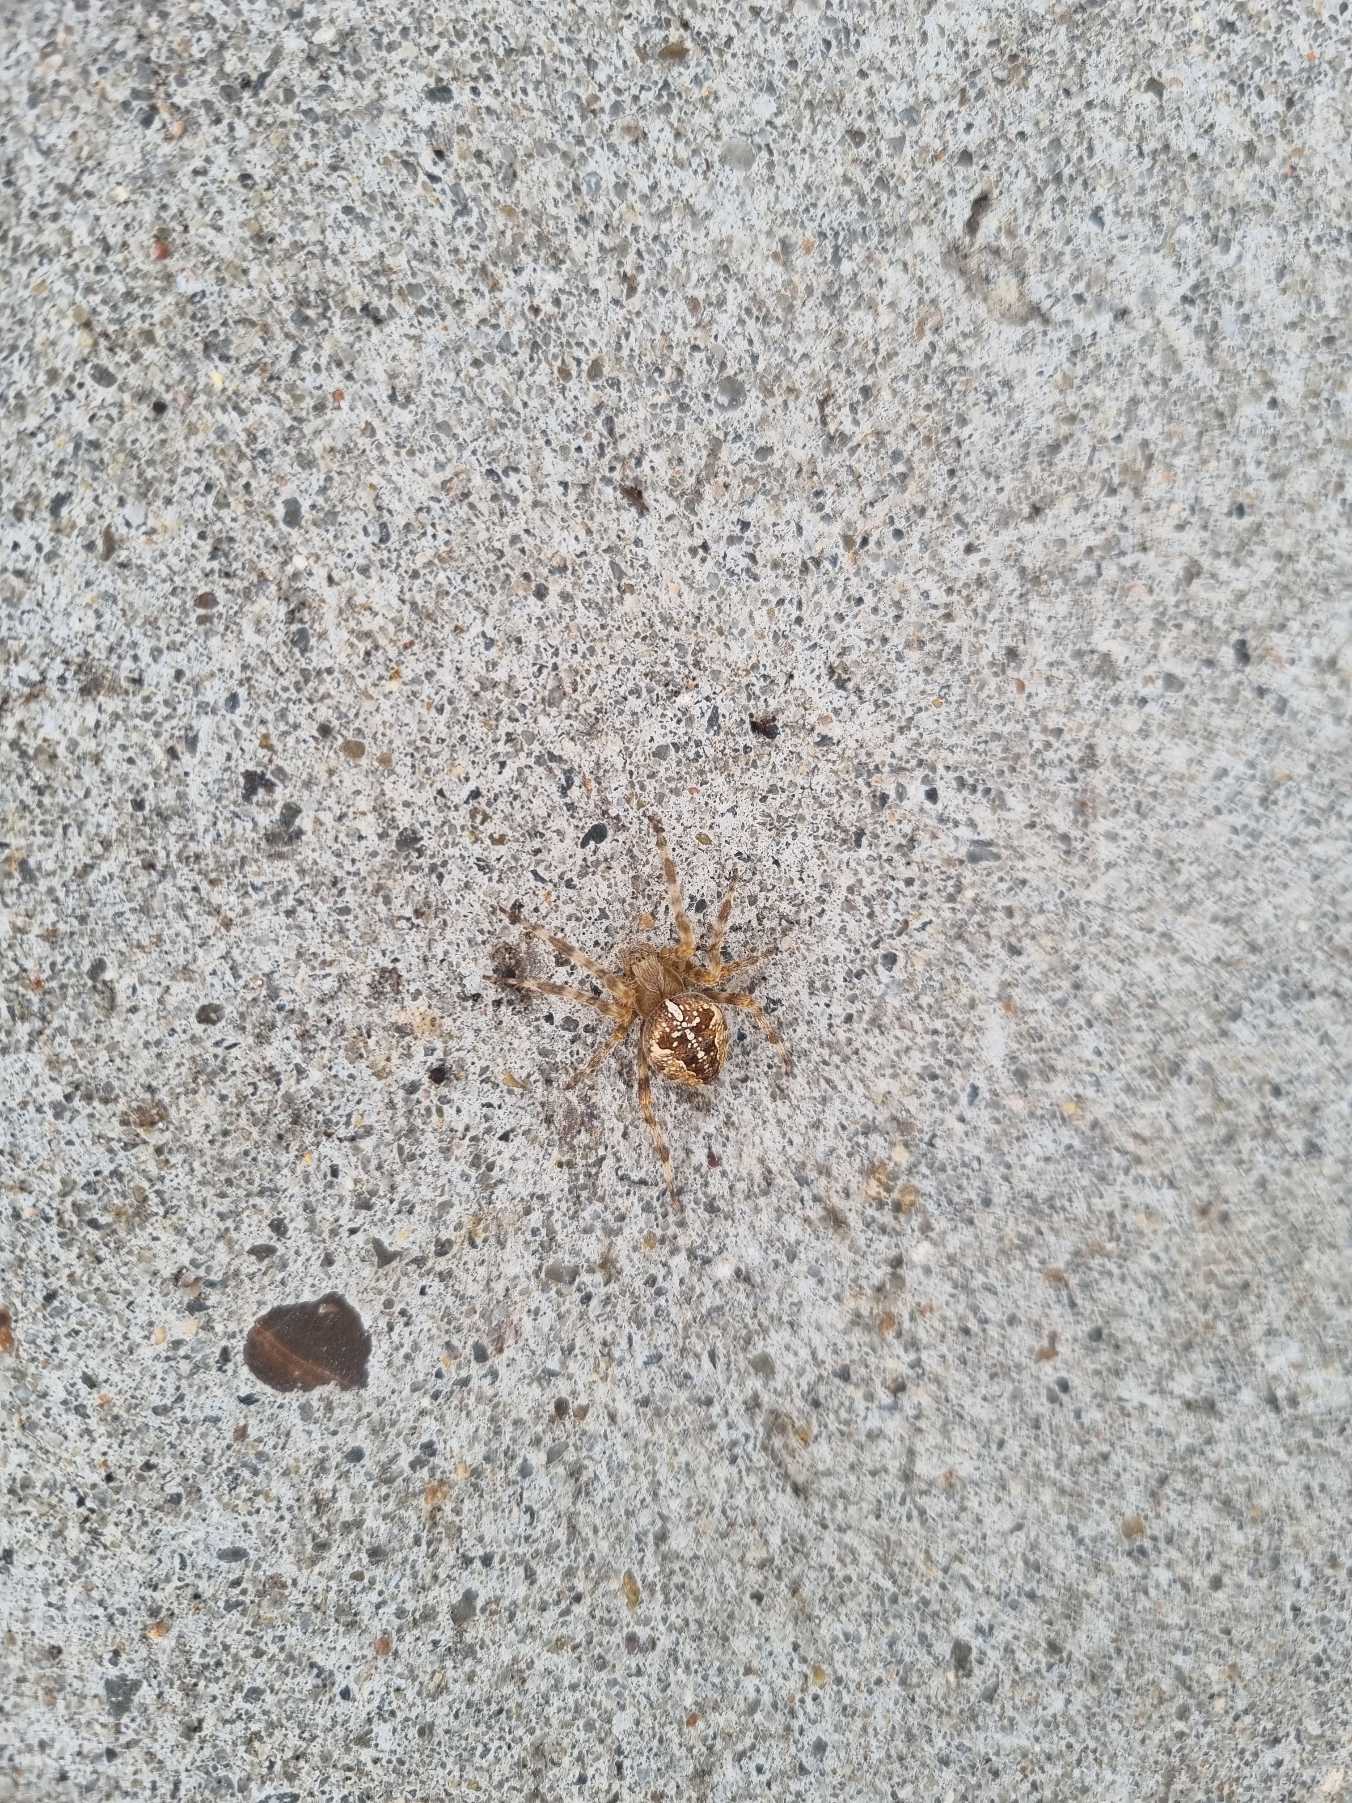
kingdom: Animalia
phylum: Arthropoda
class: Arachnida
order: Araneae
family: Araneidae
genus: Araneus
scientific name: Araneus diadematus
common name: Korsedderkop
